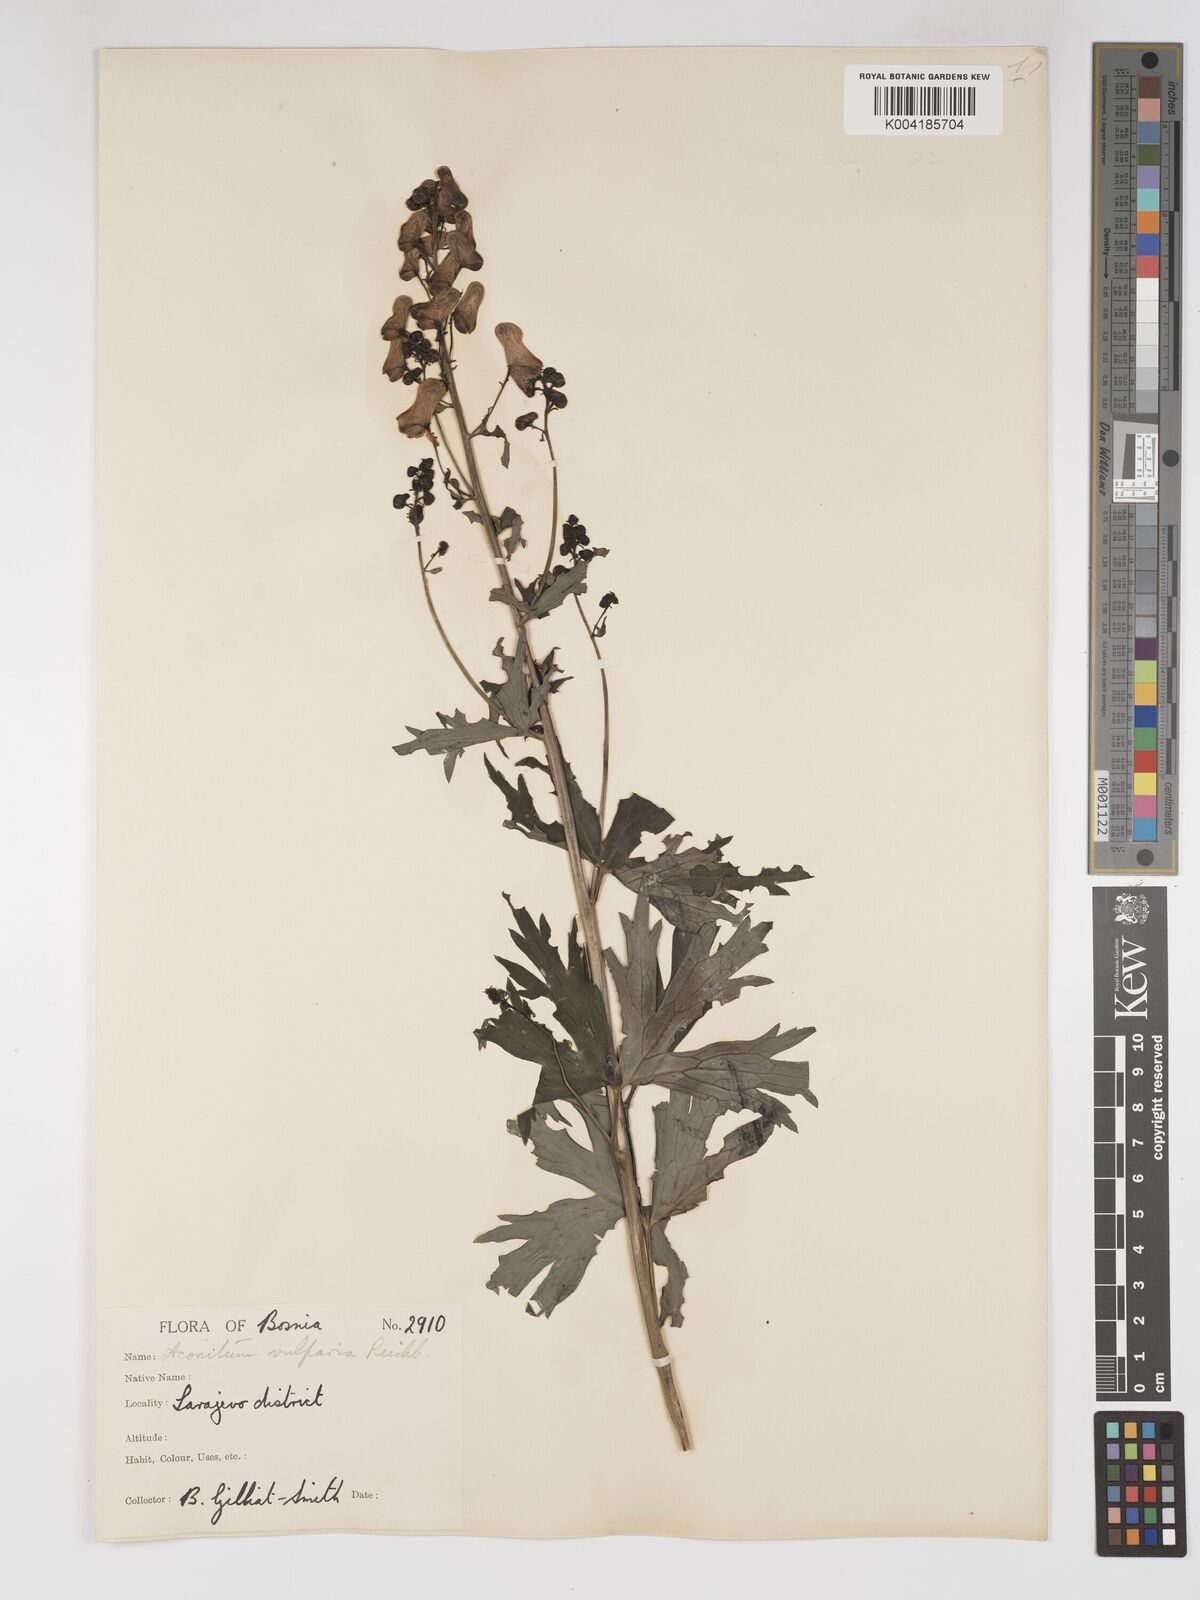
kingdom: Plantae
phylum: Tracheophyta
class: Magnoliopsida
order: Ranunculales
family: Ranunculaceae
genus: Aconitum
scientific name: Aconitum lycoctonum
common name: Wolf's-bane
